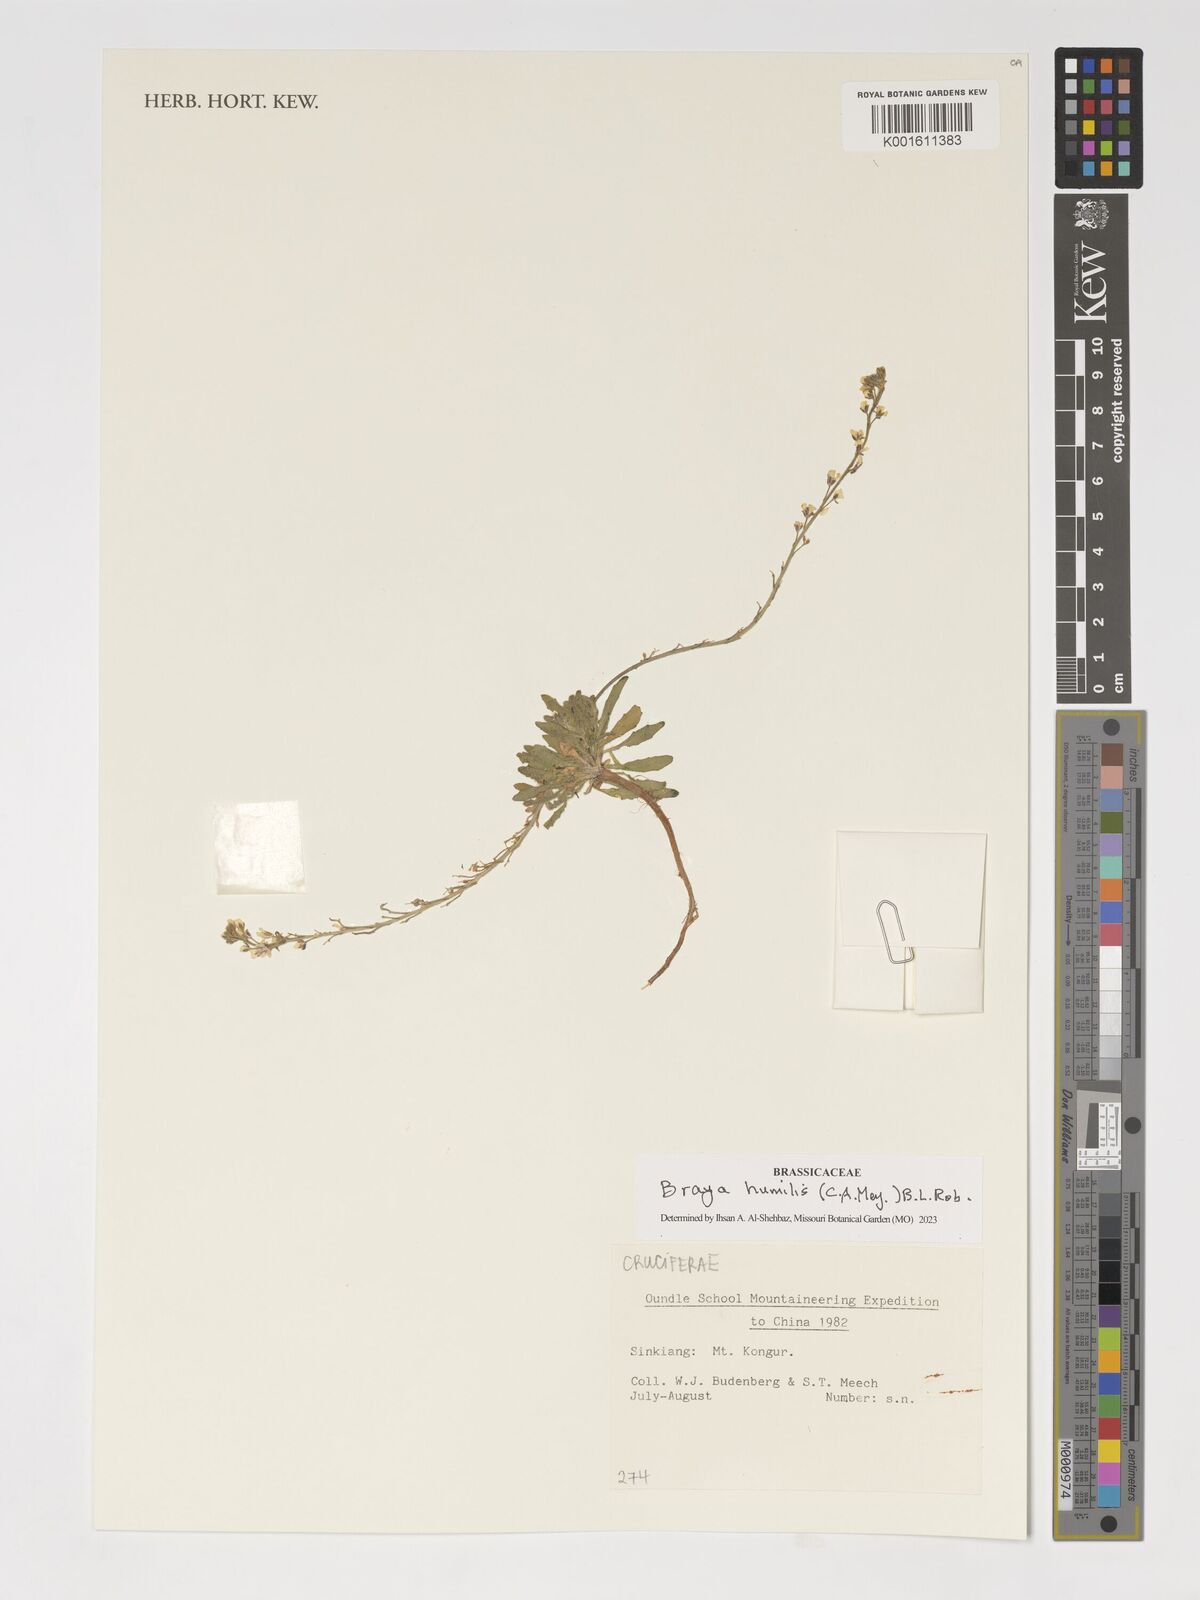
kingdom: Plantae
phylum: Tracheophyta
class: Magnoliopsida
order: Brassicales
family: Brassicaceae
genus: Braya
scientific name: Braya humilis
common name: Alpine northern rockcress
